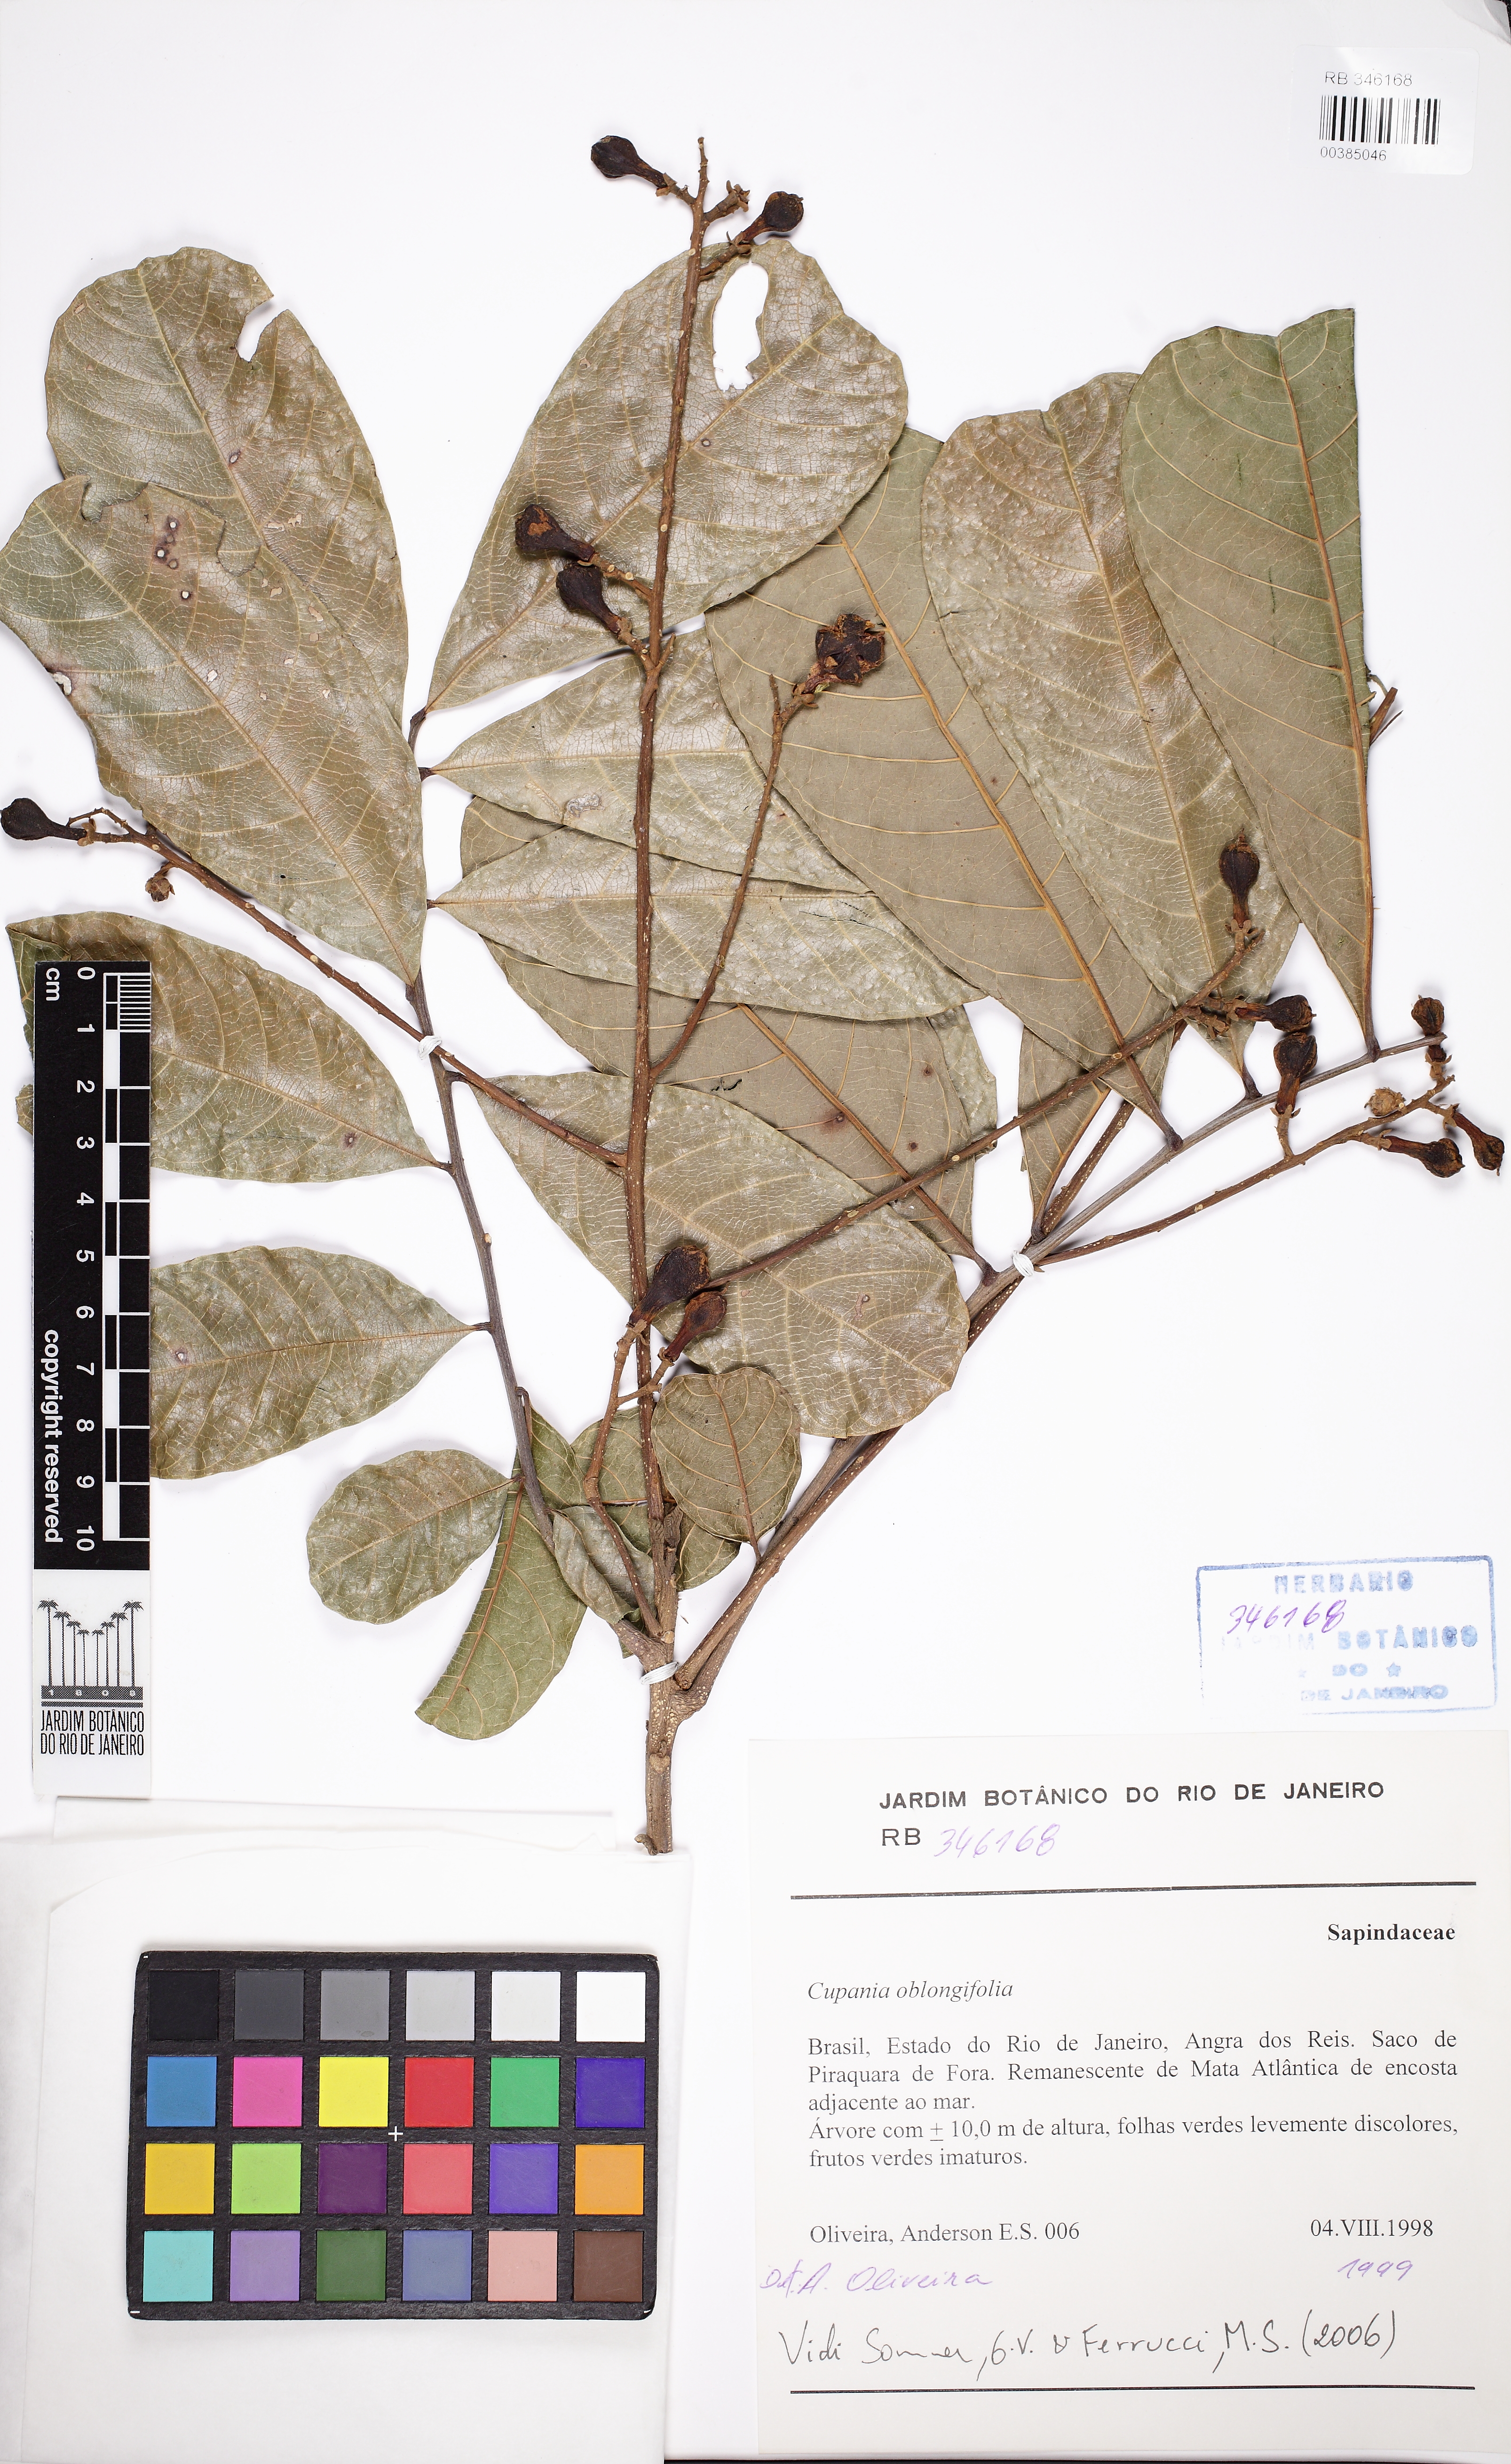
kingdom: Plantae
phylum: Tracheophyta
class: Magnoliopsida
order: Sapindales
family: Sapindaceae
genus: Cupania
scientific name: Cupania oblongifolia
